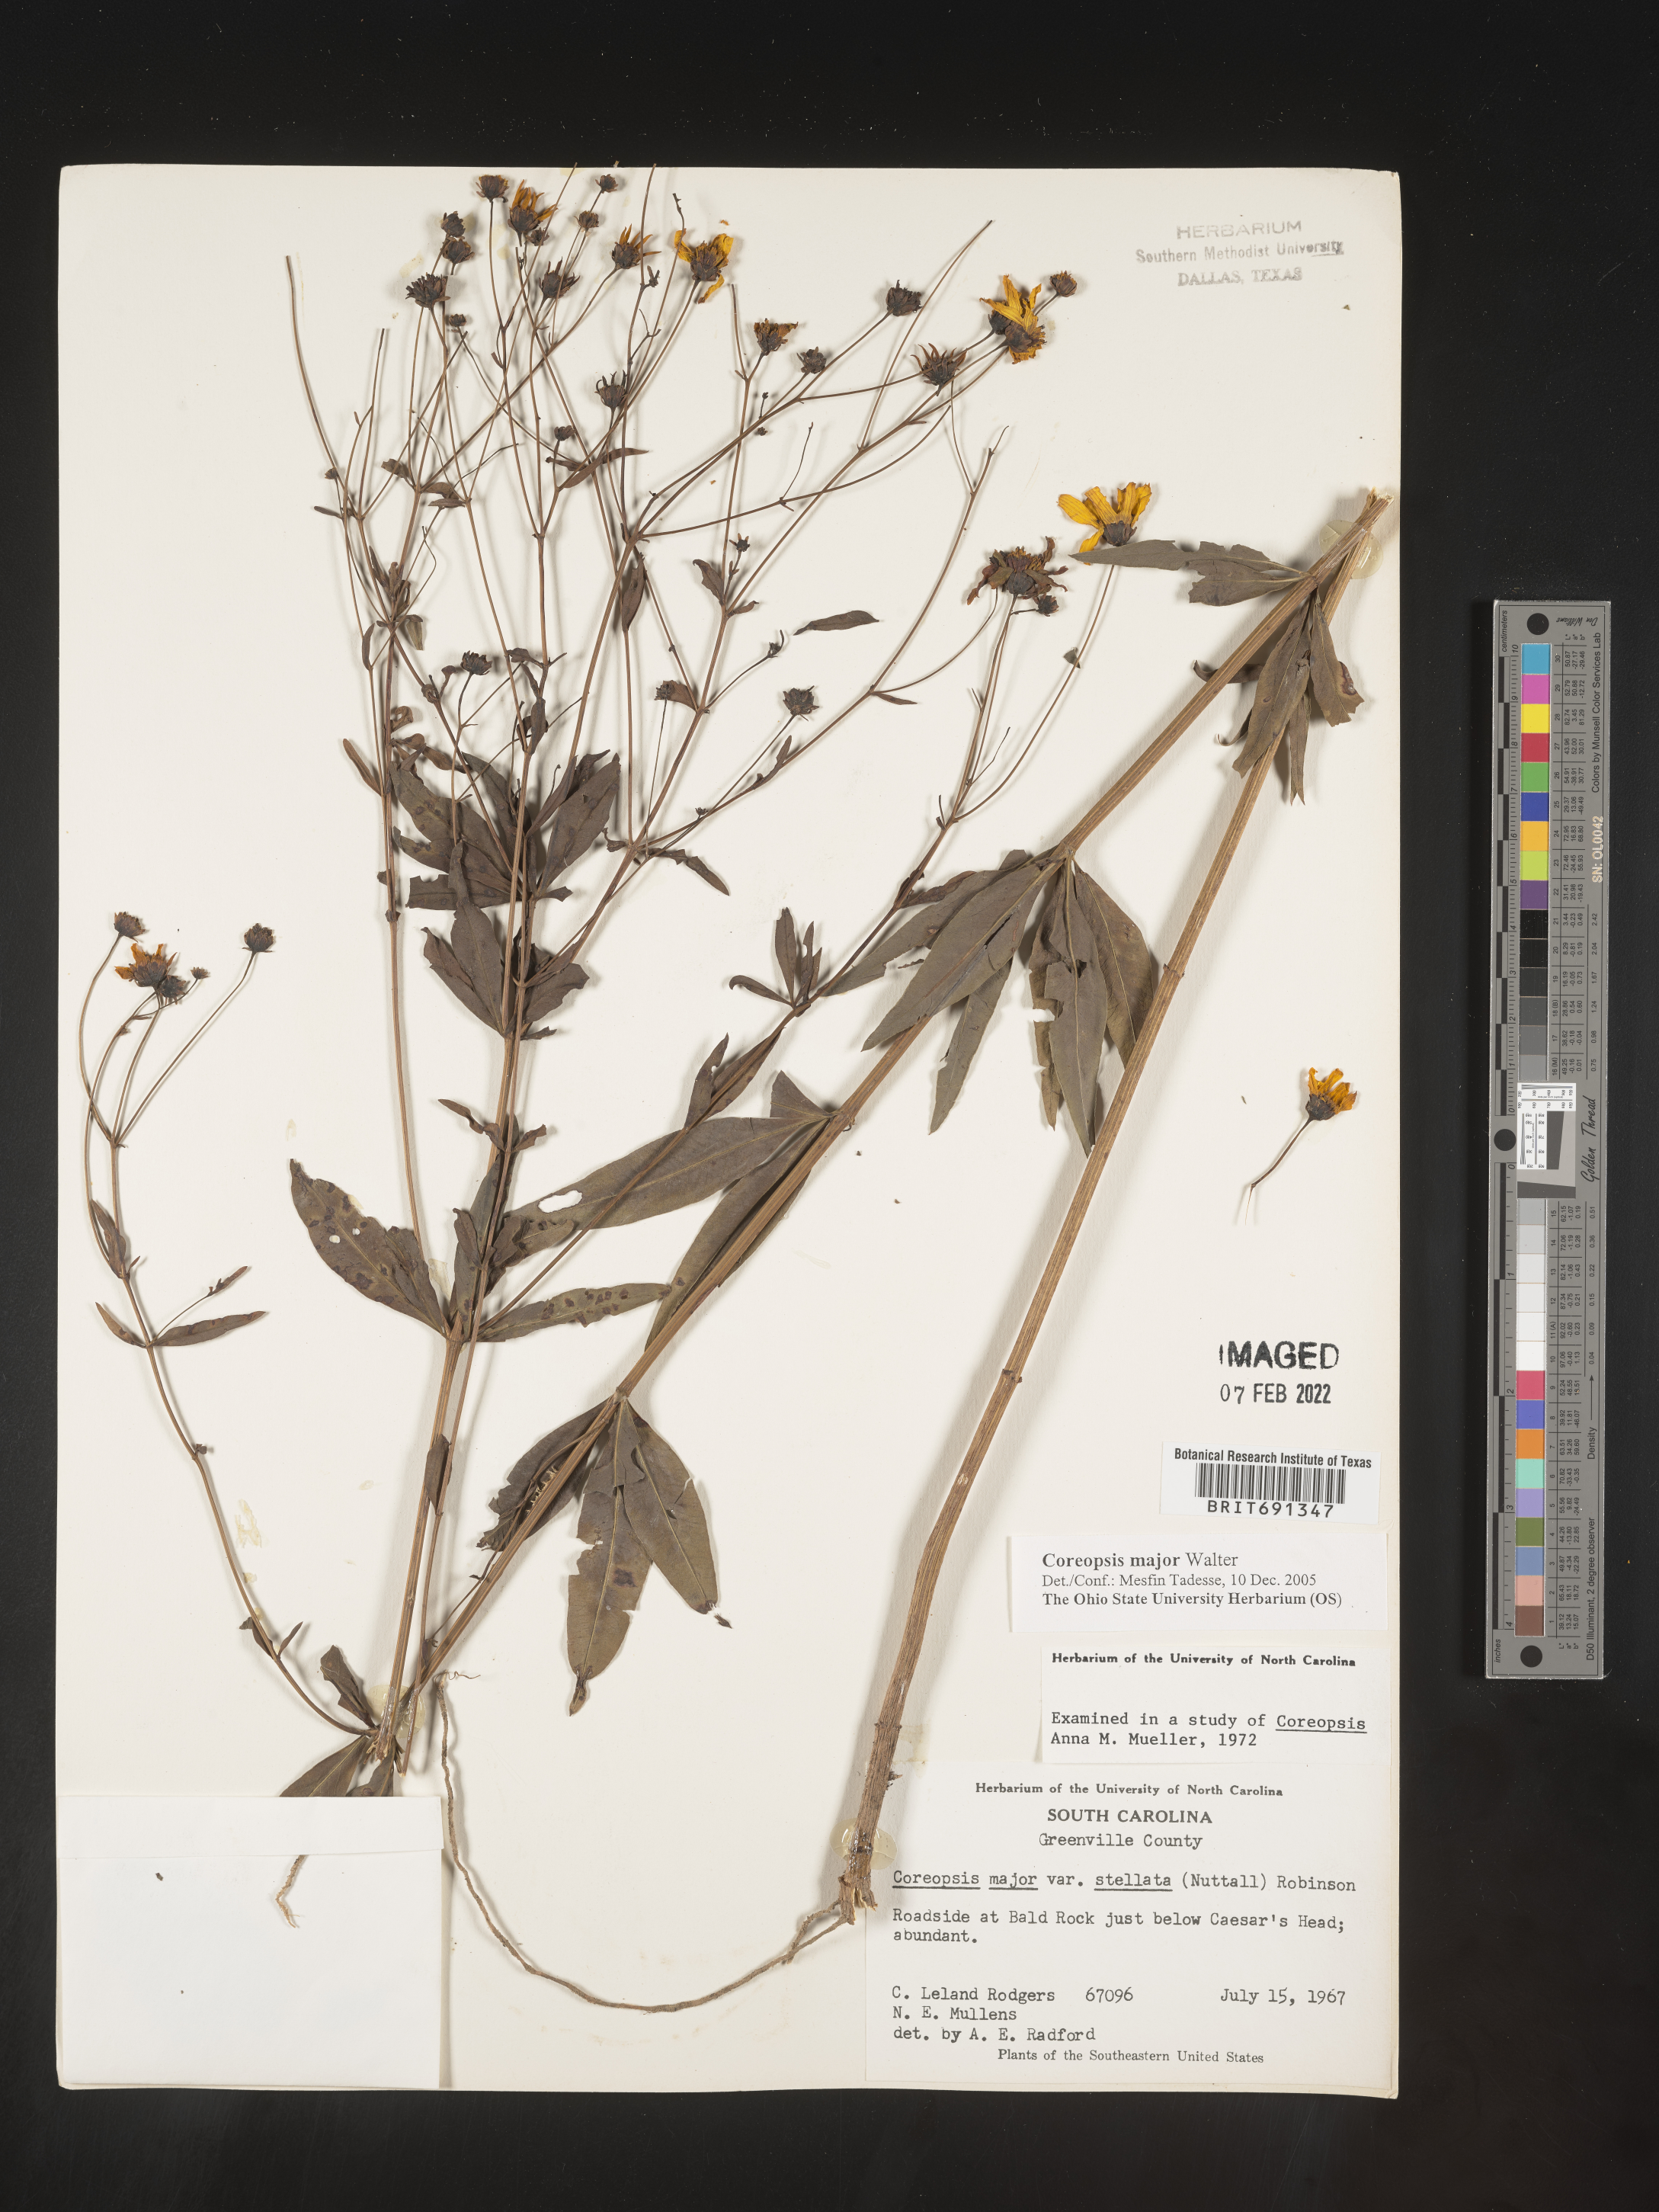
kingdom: Plantae
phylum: Tracheophyta
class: Magnoliopsida
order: Asterales
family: Asteraceae
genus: Coreopsis
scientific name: Coreopsis major
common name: Forest tickseed
